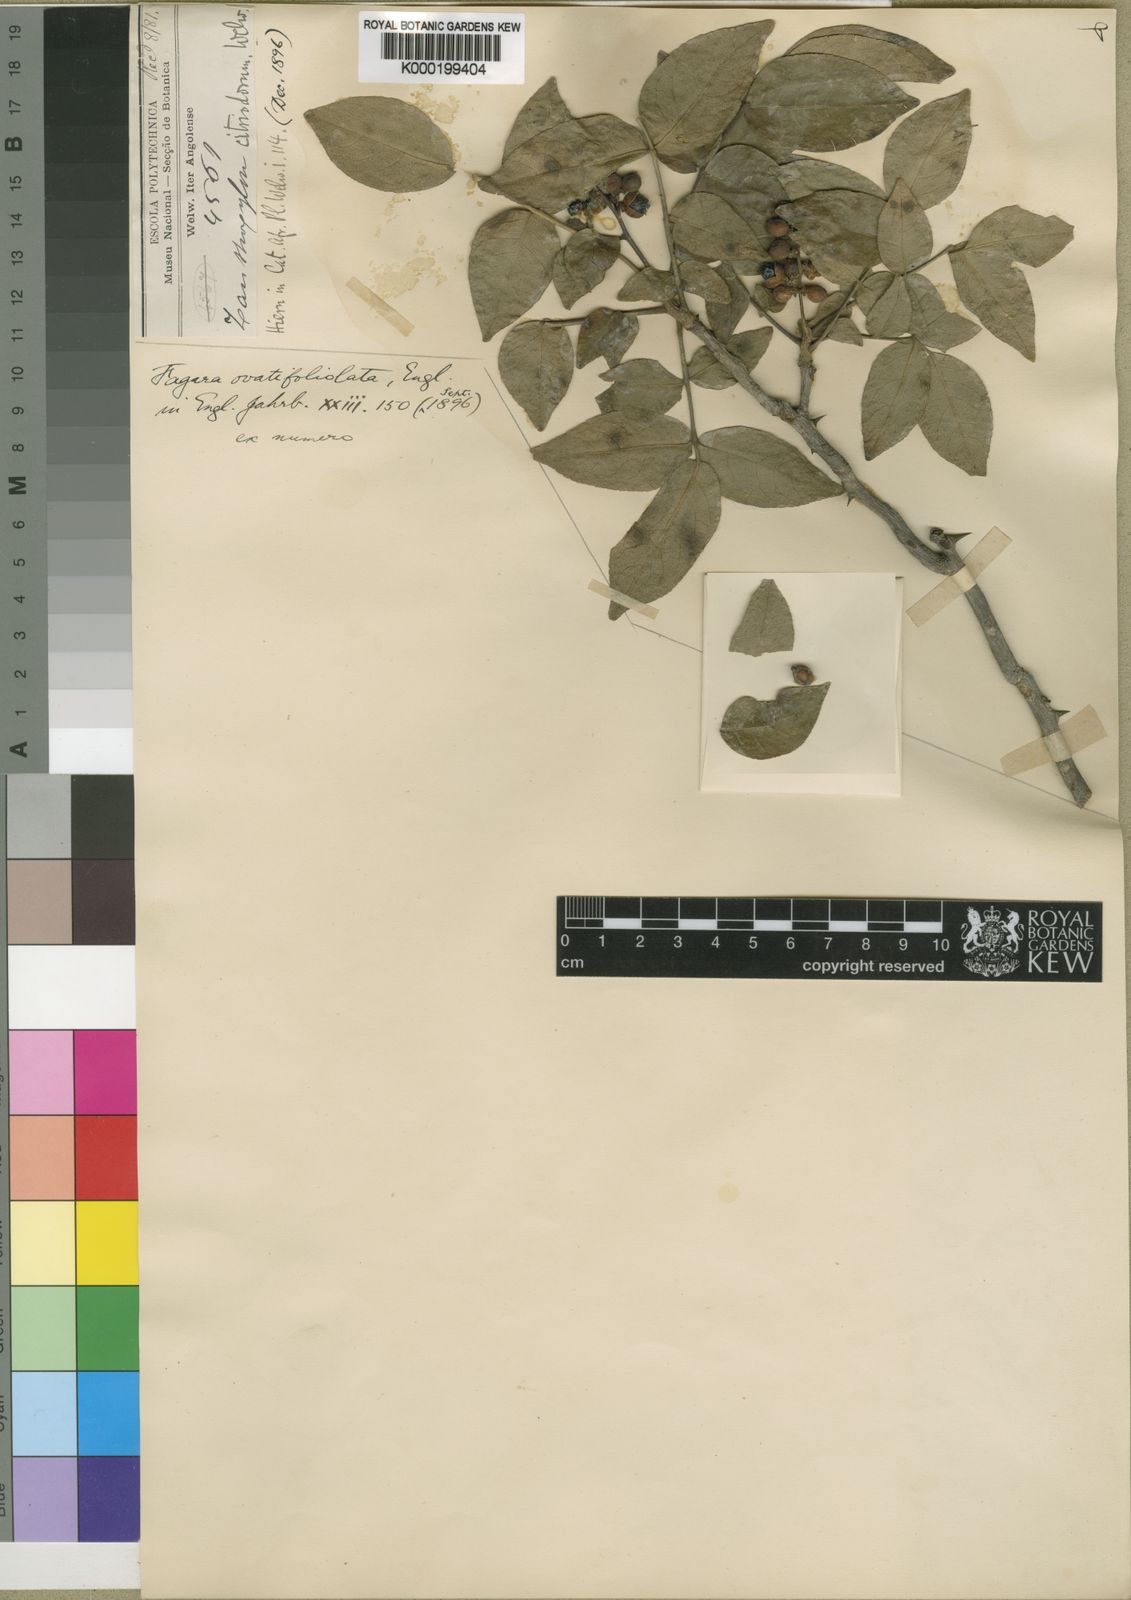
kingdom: Plantae
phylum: Tracheophyta
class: Magnoliopsida
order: Sapindales
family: Rutaceae
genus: Zanthoxylum
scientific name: Zanthoxylum ovatifoliolatum
